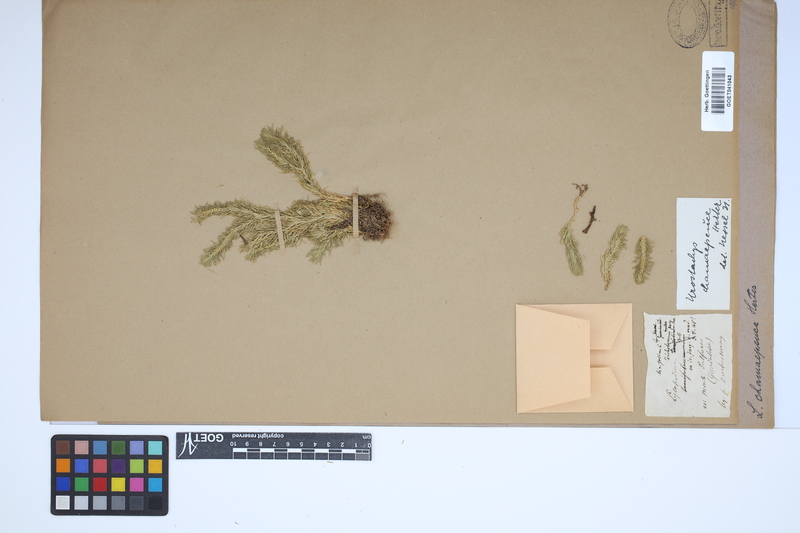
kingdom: Plantae
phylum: Tracheophyta
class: Lycopodiopsida
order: Lycopodiales
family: Lycopodiaceae
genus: Phlegmariurus
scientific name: Phlegmariurus dichotomus
